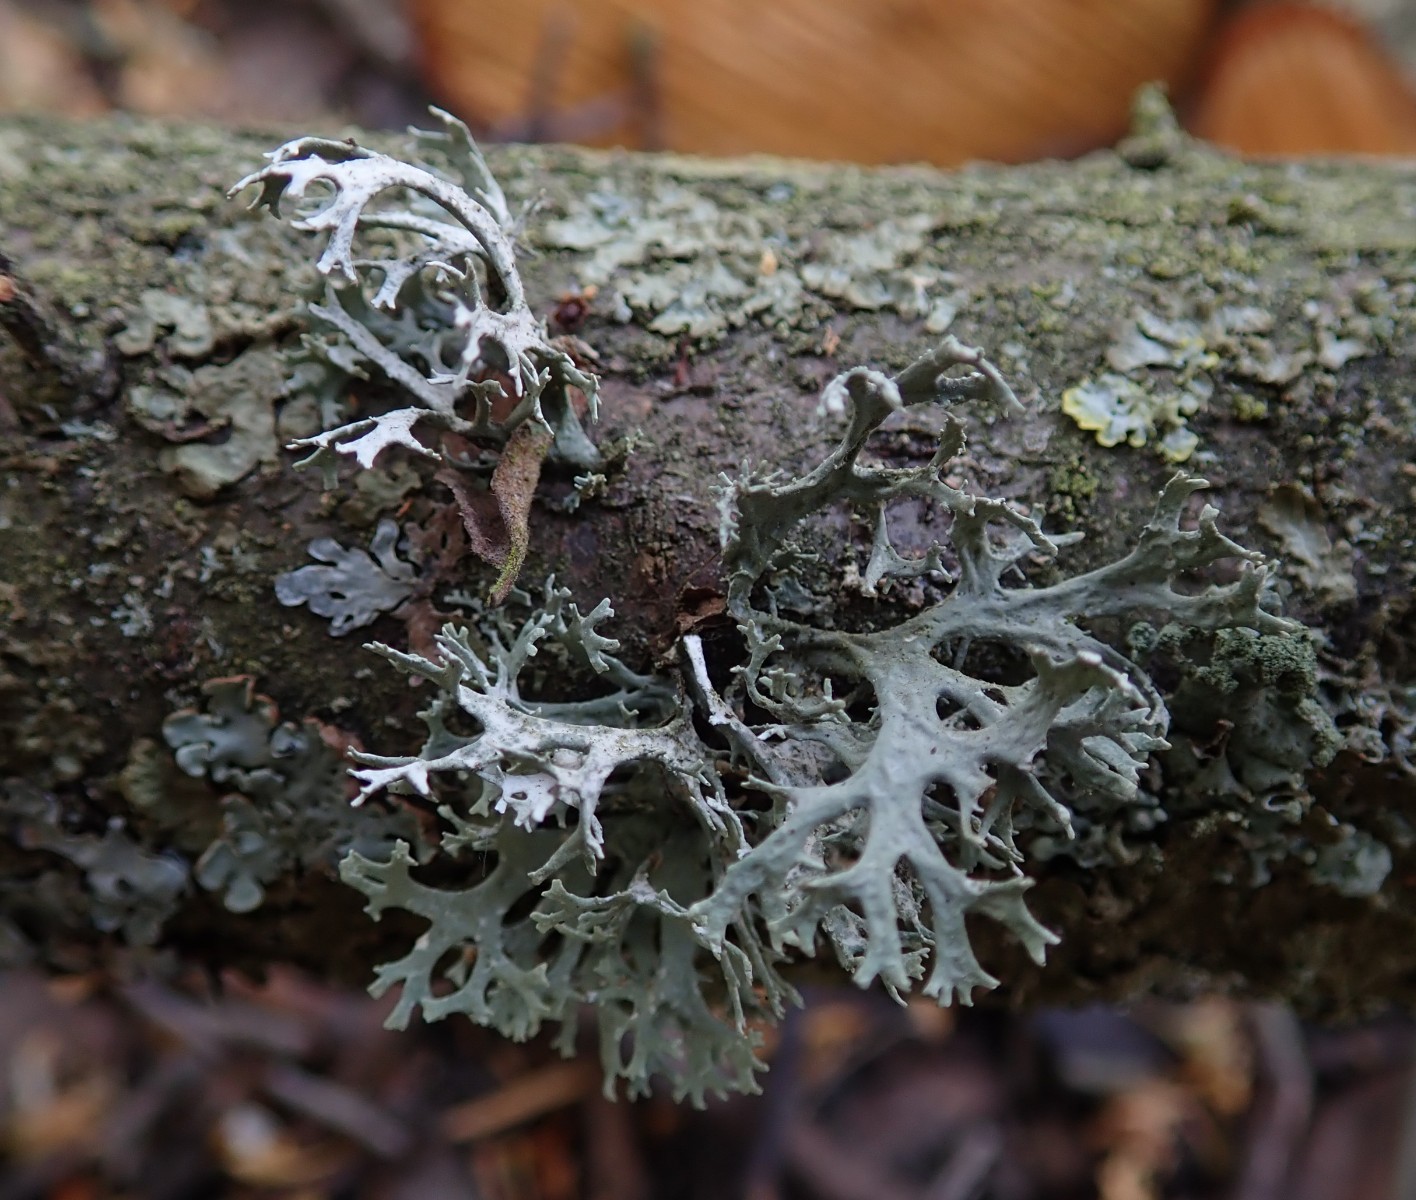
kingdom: Fungi
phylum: Ascomycota
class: Lecanoromycetes
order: Lecanorales
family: Parmeliaceae
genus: Evernia
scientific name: Evernia prunastri
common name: almindelig slåenlav
